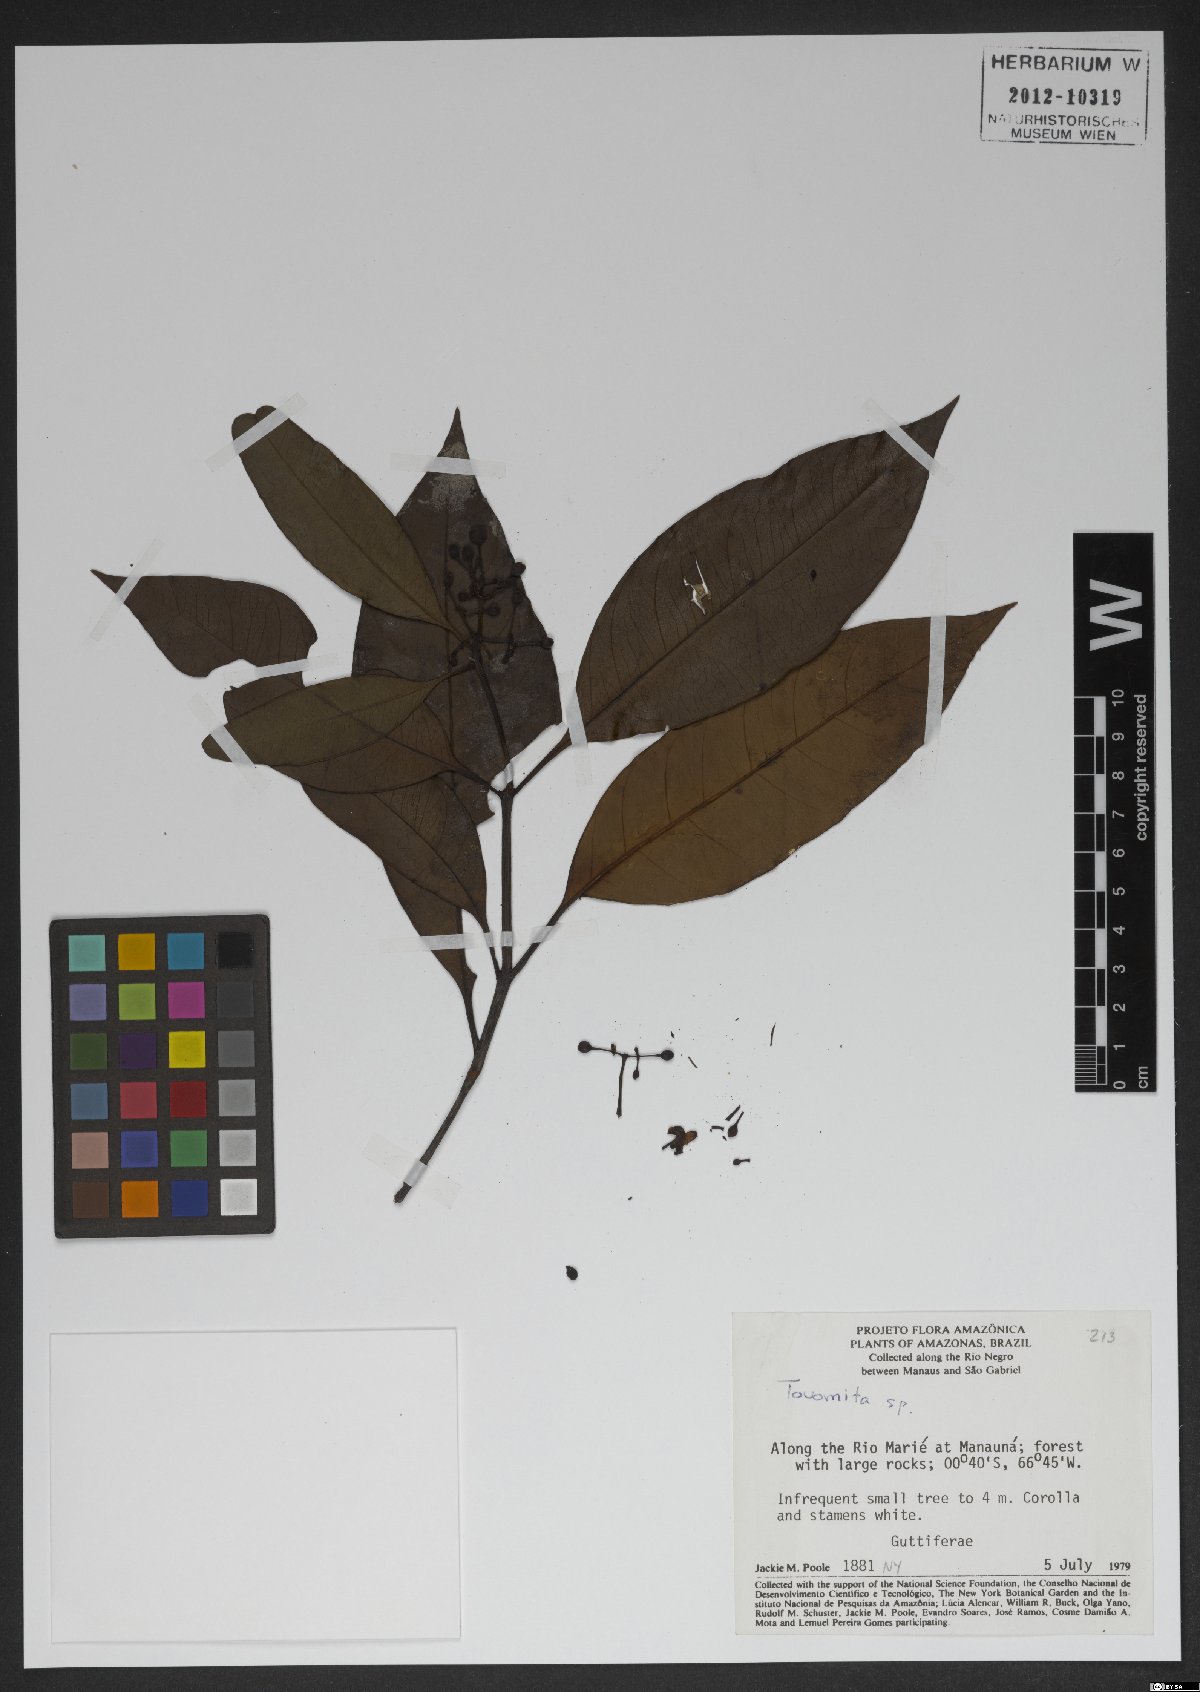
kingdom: Plantae
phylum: Tracheophyta
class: Magnoliopsida
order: Malpighiales
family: Clusiaceae
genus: Tovomita
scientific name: Tovomita
